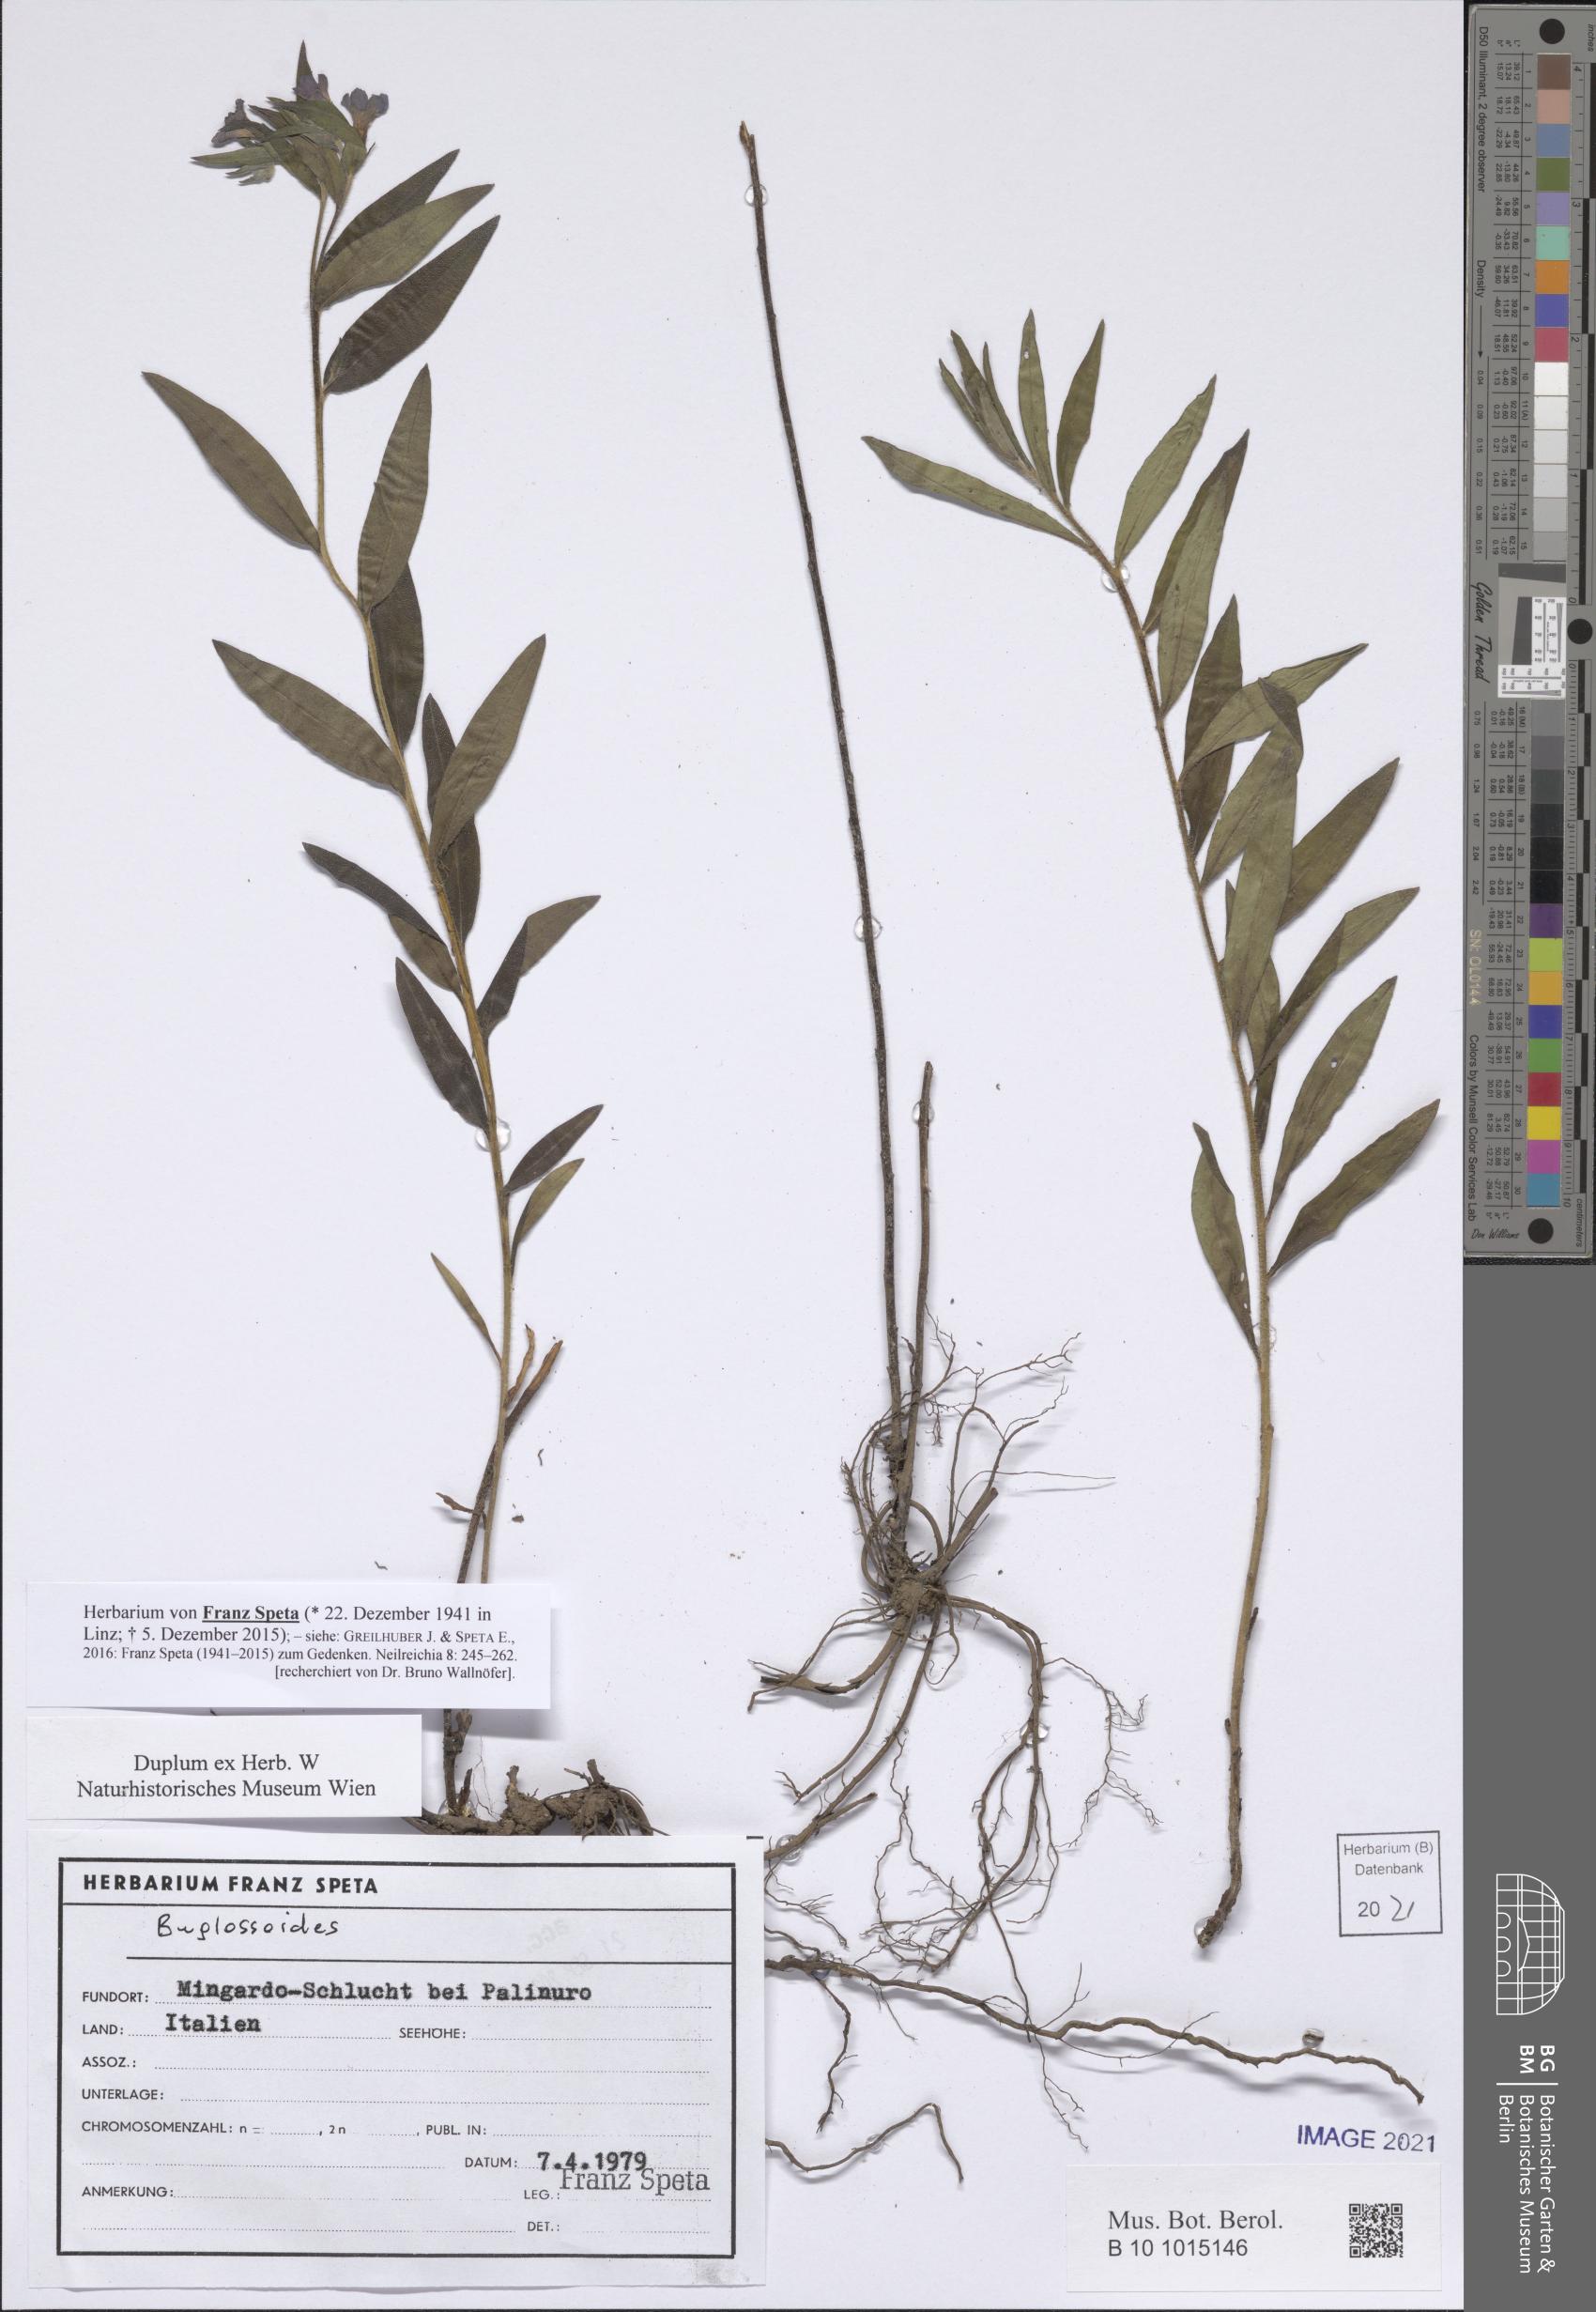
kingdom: Plantae
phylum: Tracheophyta
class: Magnoliopsida
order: Boraginales
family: Boraginaceae
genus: Buglossoides
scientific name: Buglossoides
